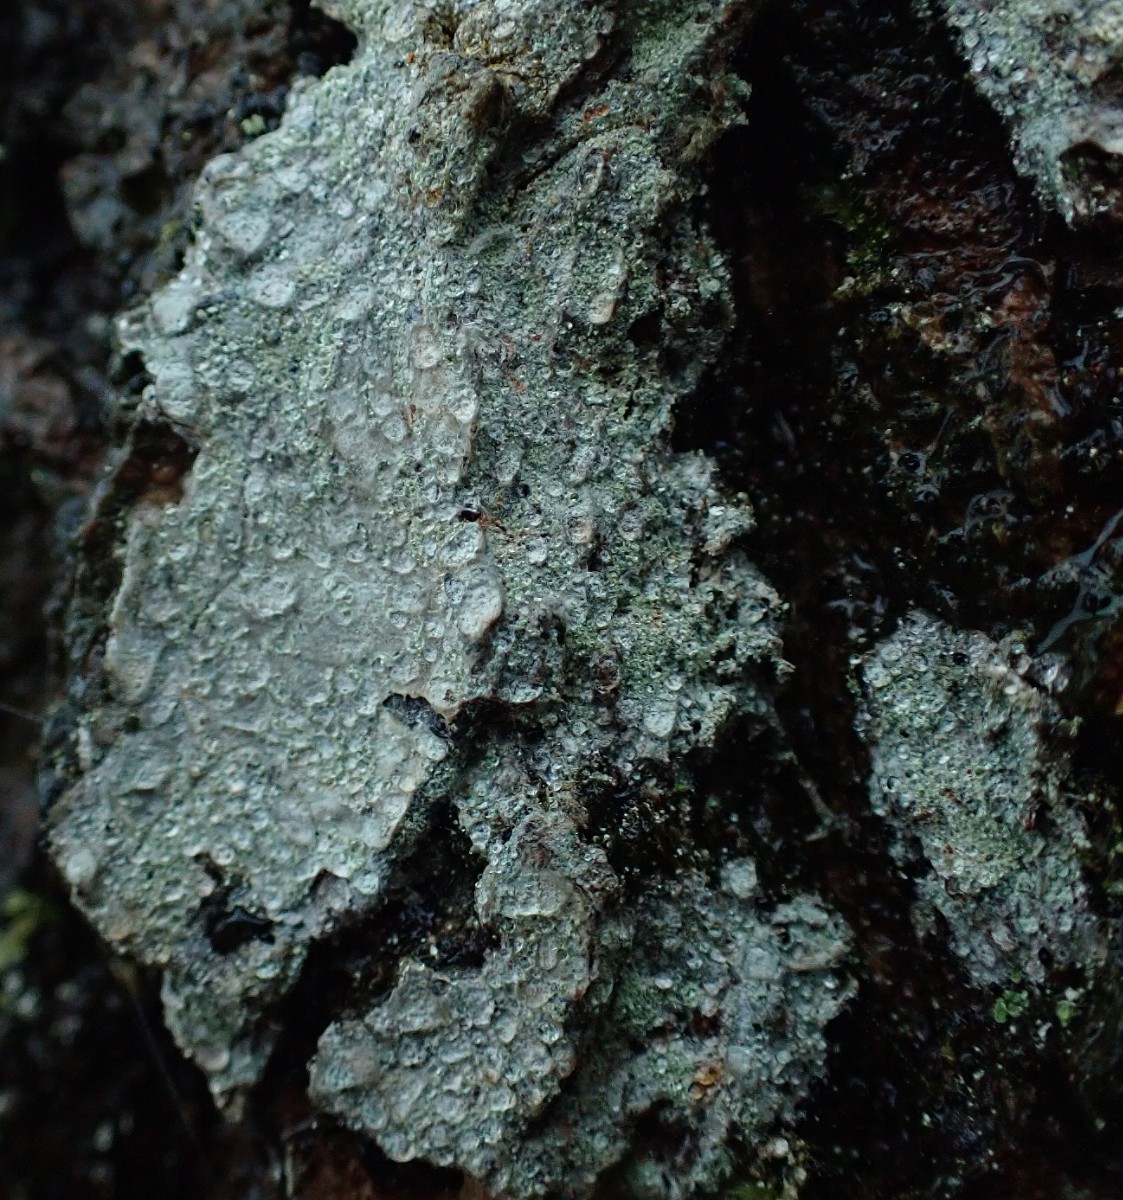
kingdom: Fungi
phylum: Ascomycota
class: Lecanoromycetes
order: Ostropales
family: Phlyctidaceae
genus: Phlyctis
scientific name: Phlyctis argena
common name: almindelig sølvlav
